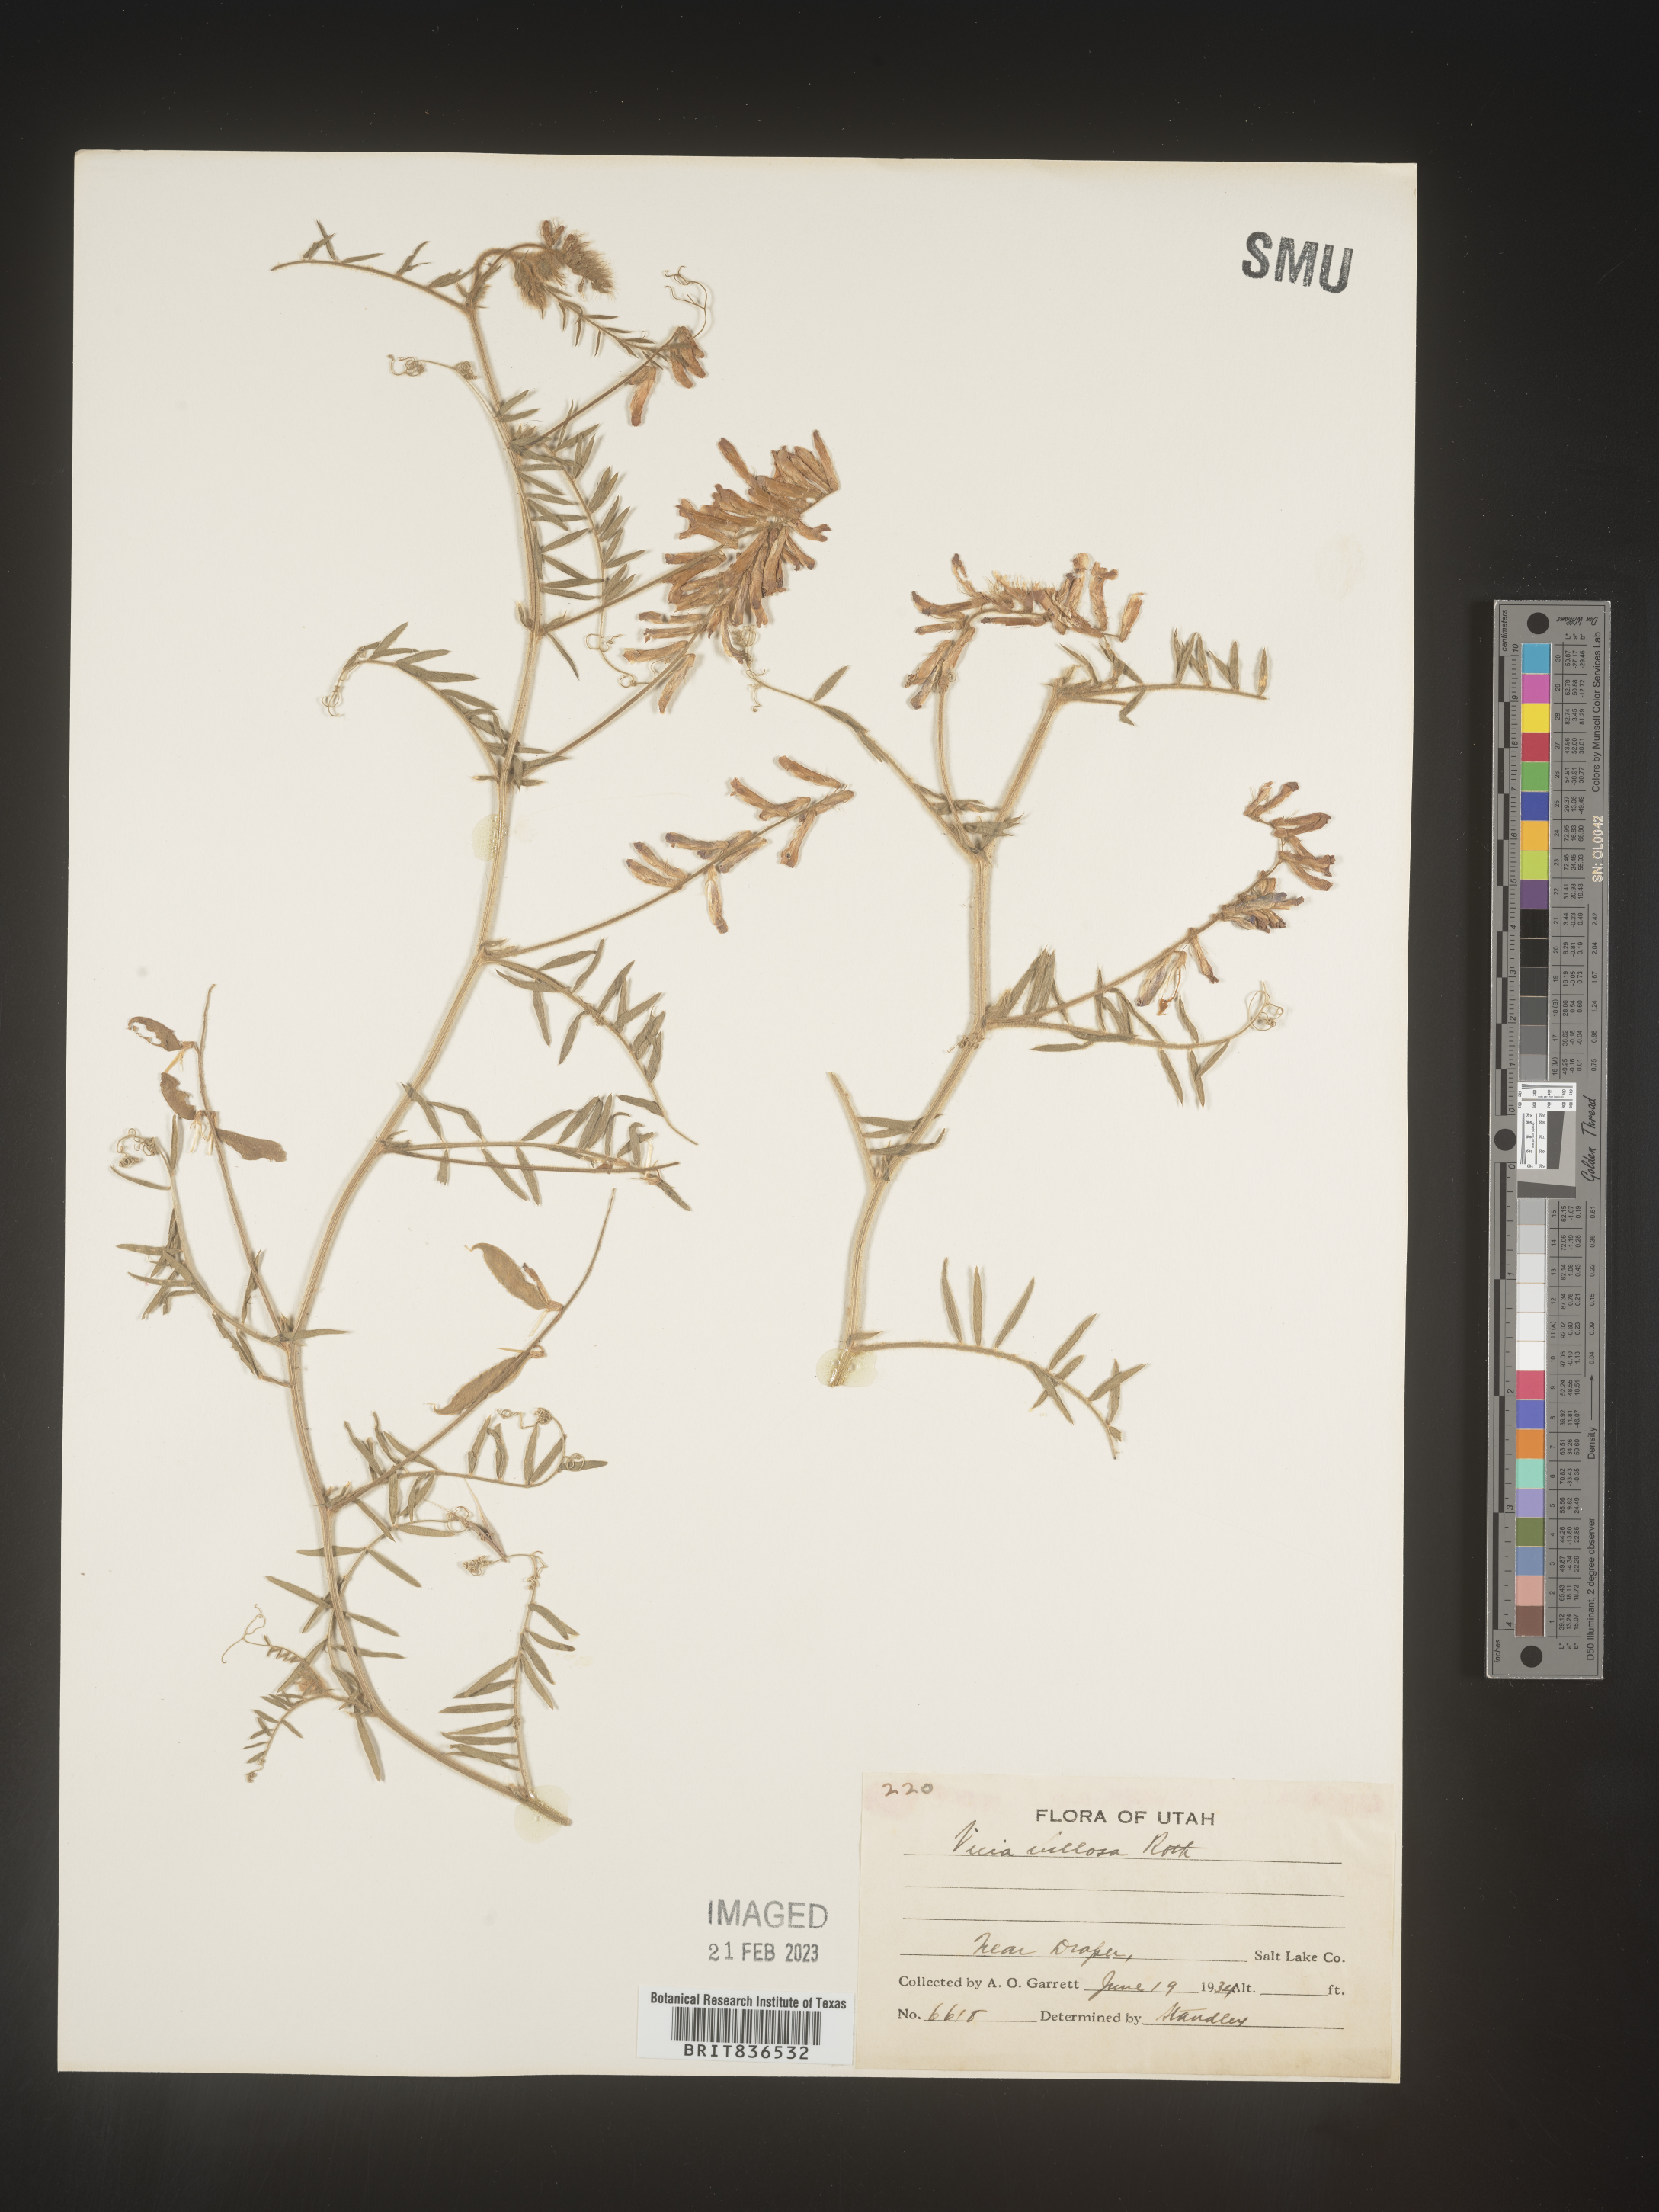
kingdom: Plantae
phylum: Tracheophyta
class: Magnoliopsida
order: Fabales
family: Fabaceae
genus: Vicia
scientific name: Vicia villosa
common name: Fodder vetch
